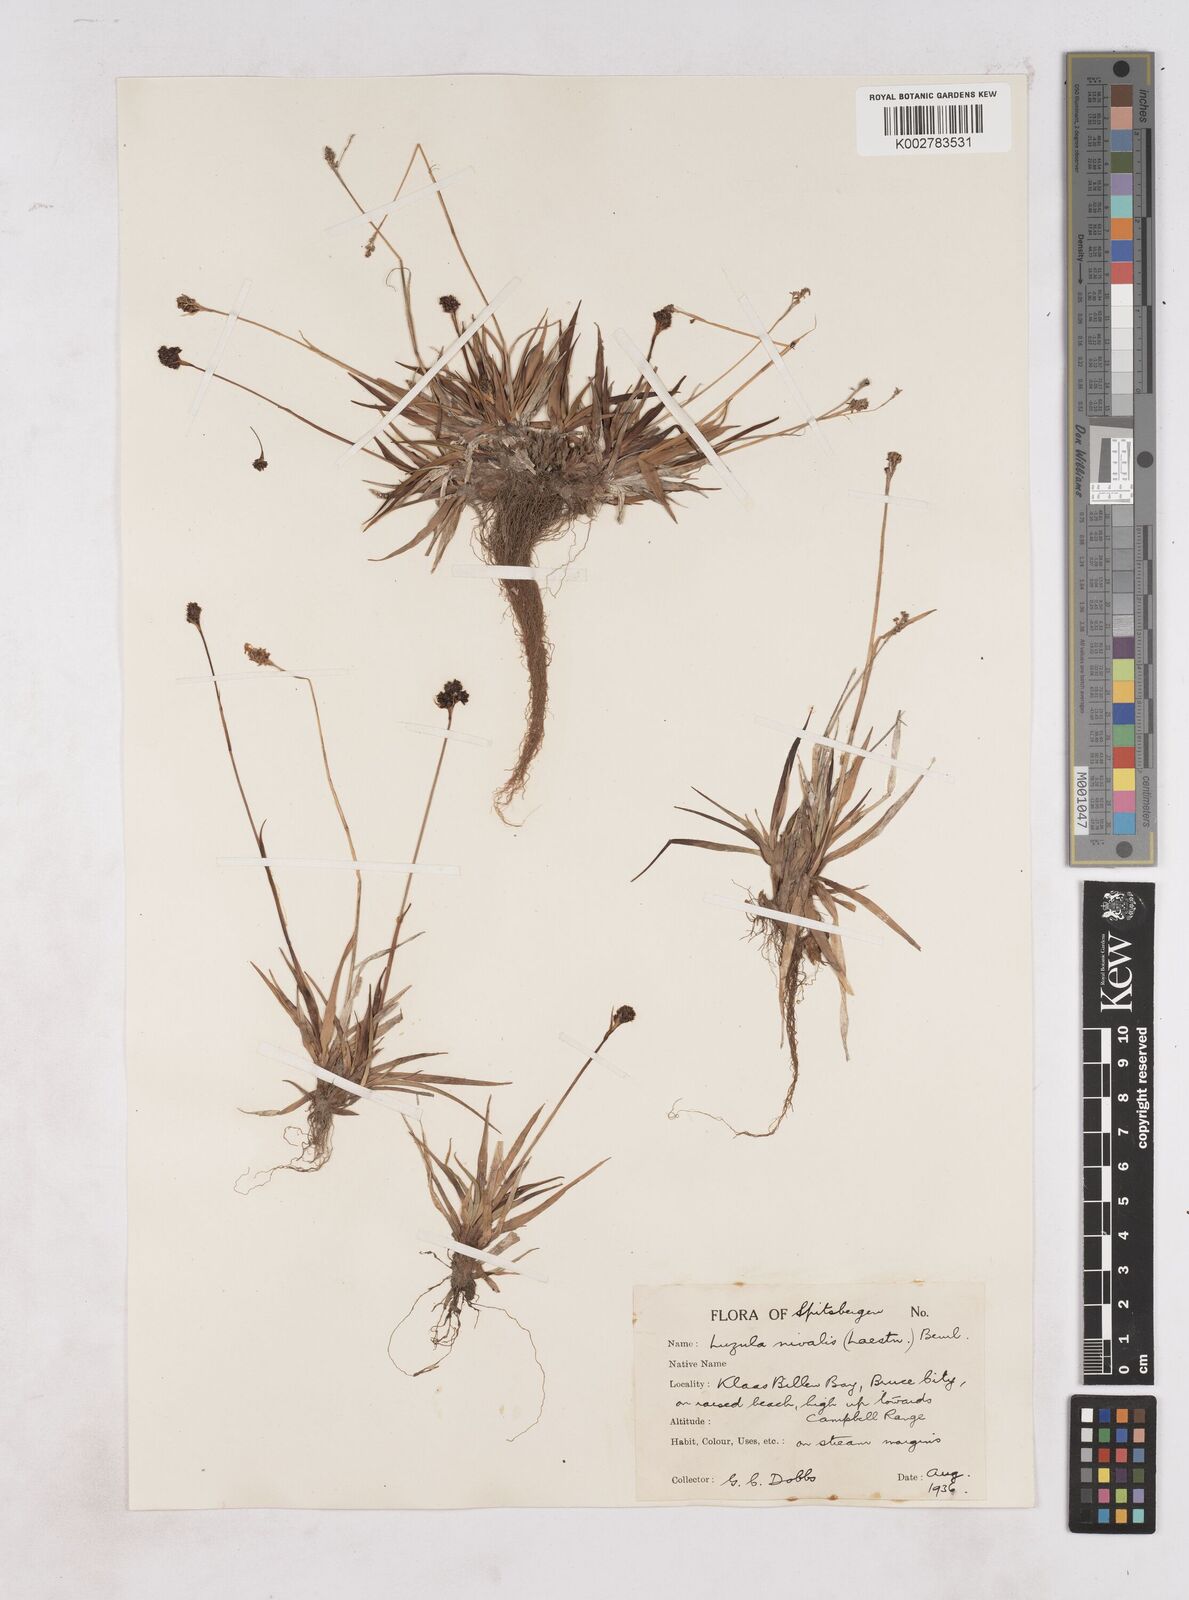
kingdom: Plantae
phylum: Tracheophyta
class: Liliopsida
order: Poales
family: Juncaceae
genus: Luzula
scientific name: Luzula nivalis
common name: Arctic woodrush
